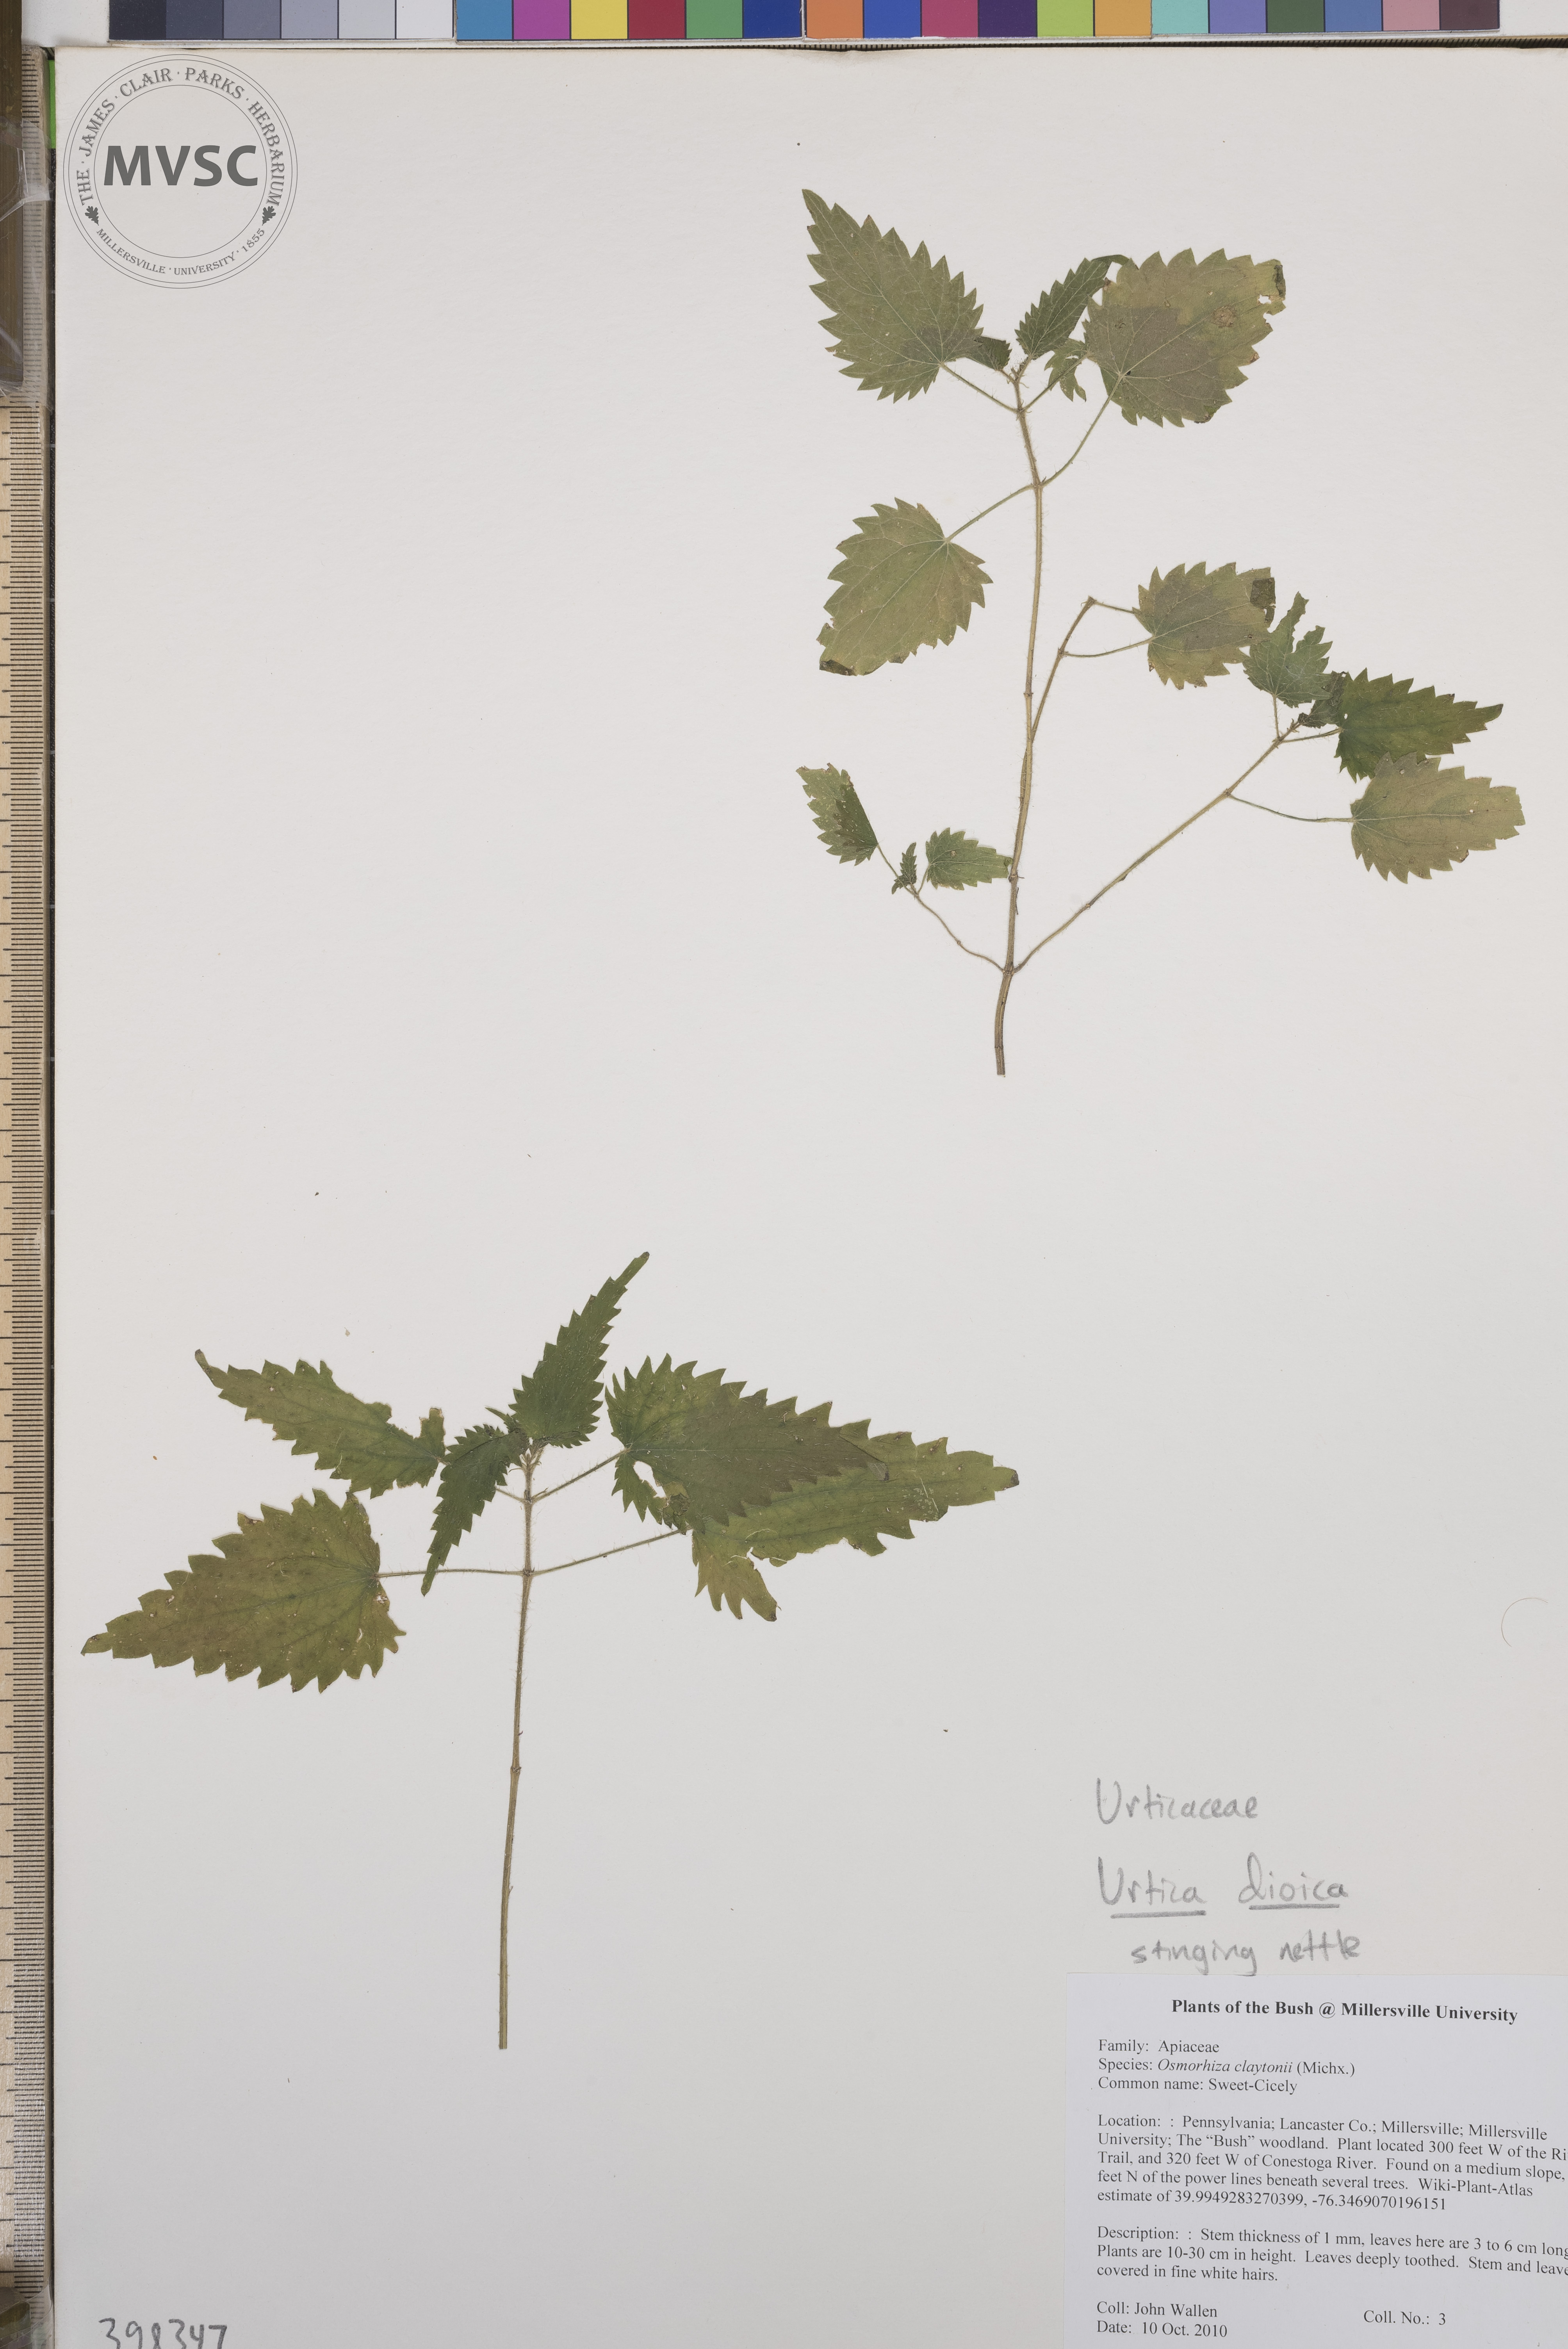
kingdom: Plantae
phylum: Tracheophyta
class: Magnoliopsida
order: Rosales
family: Urticaceae
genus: Urtica
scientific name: Urtica dioica
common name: Stinging nettle
